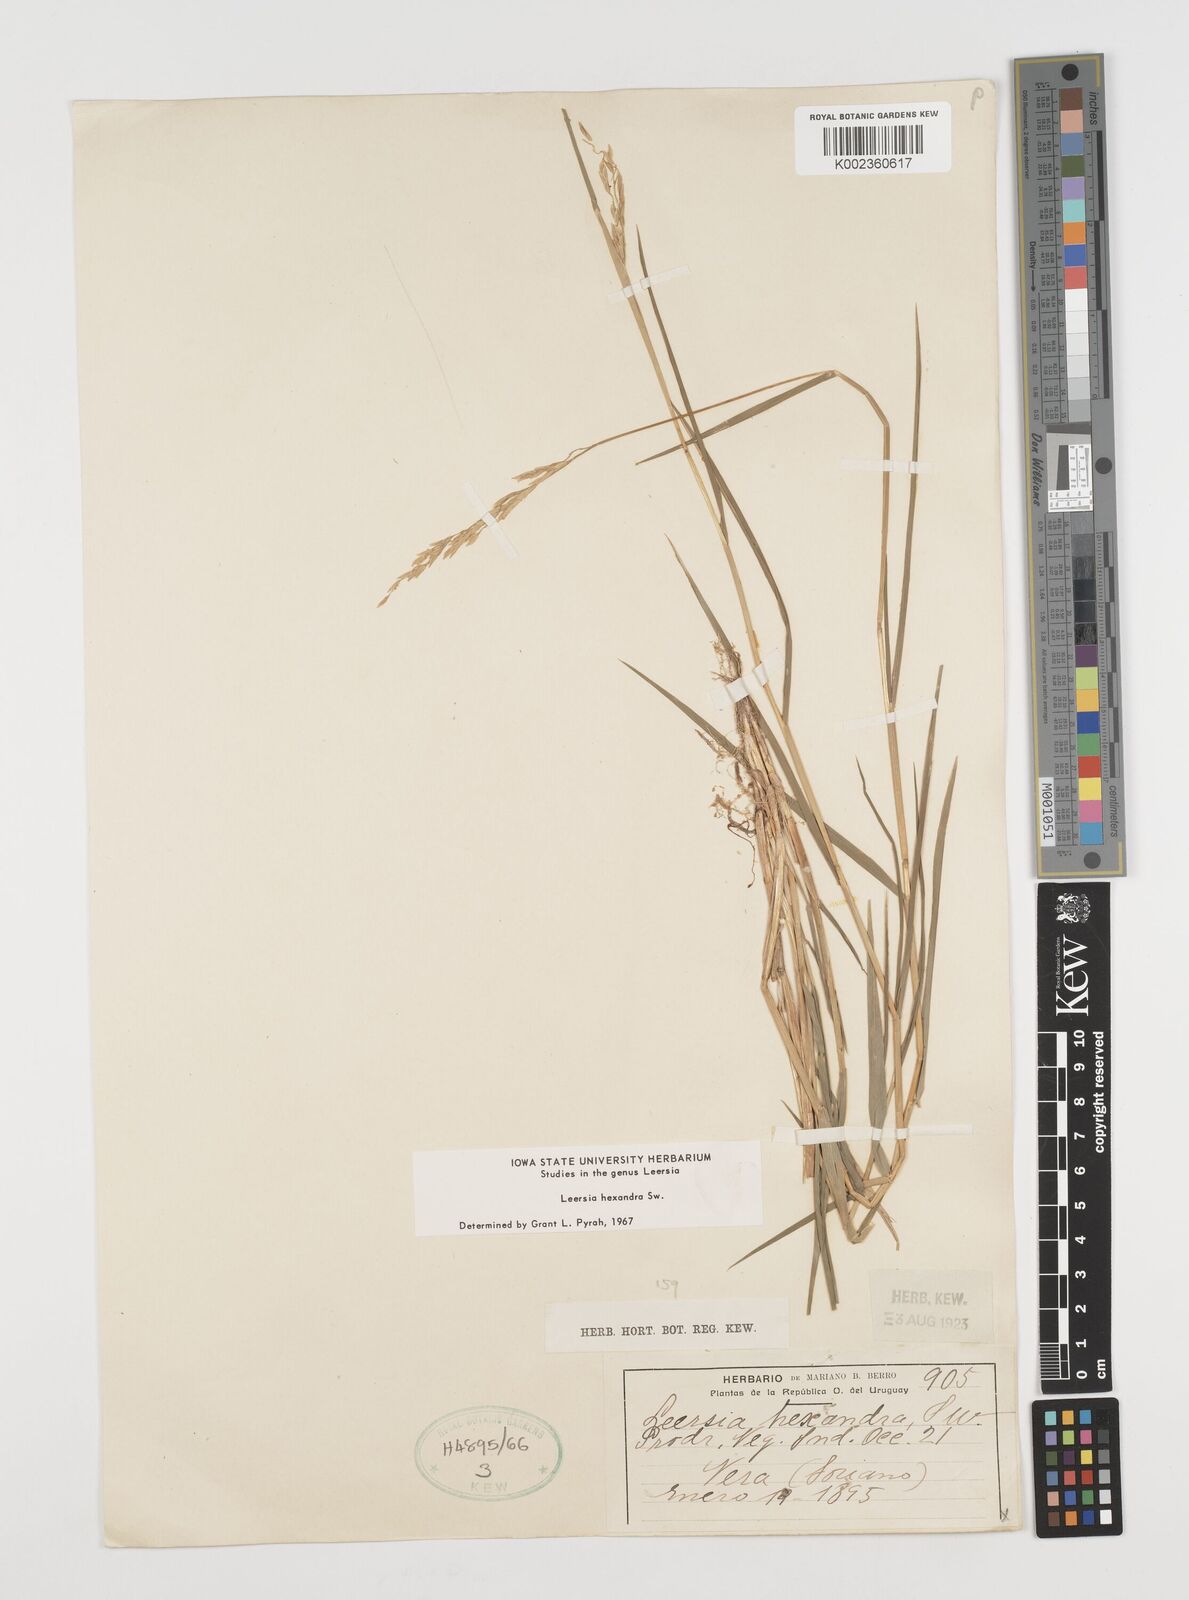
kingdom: Plantae
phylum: Tracheophyta
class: Liliopsida
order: Poales
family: Poaceae
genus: Leersia
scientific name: Leersia hexandra
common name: Southern cut grass
